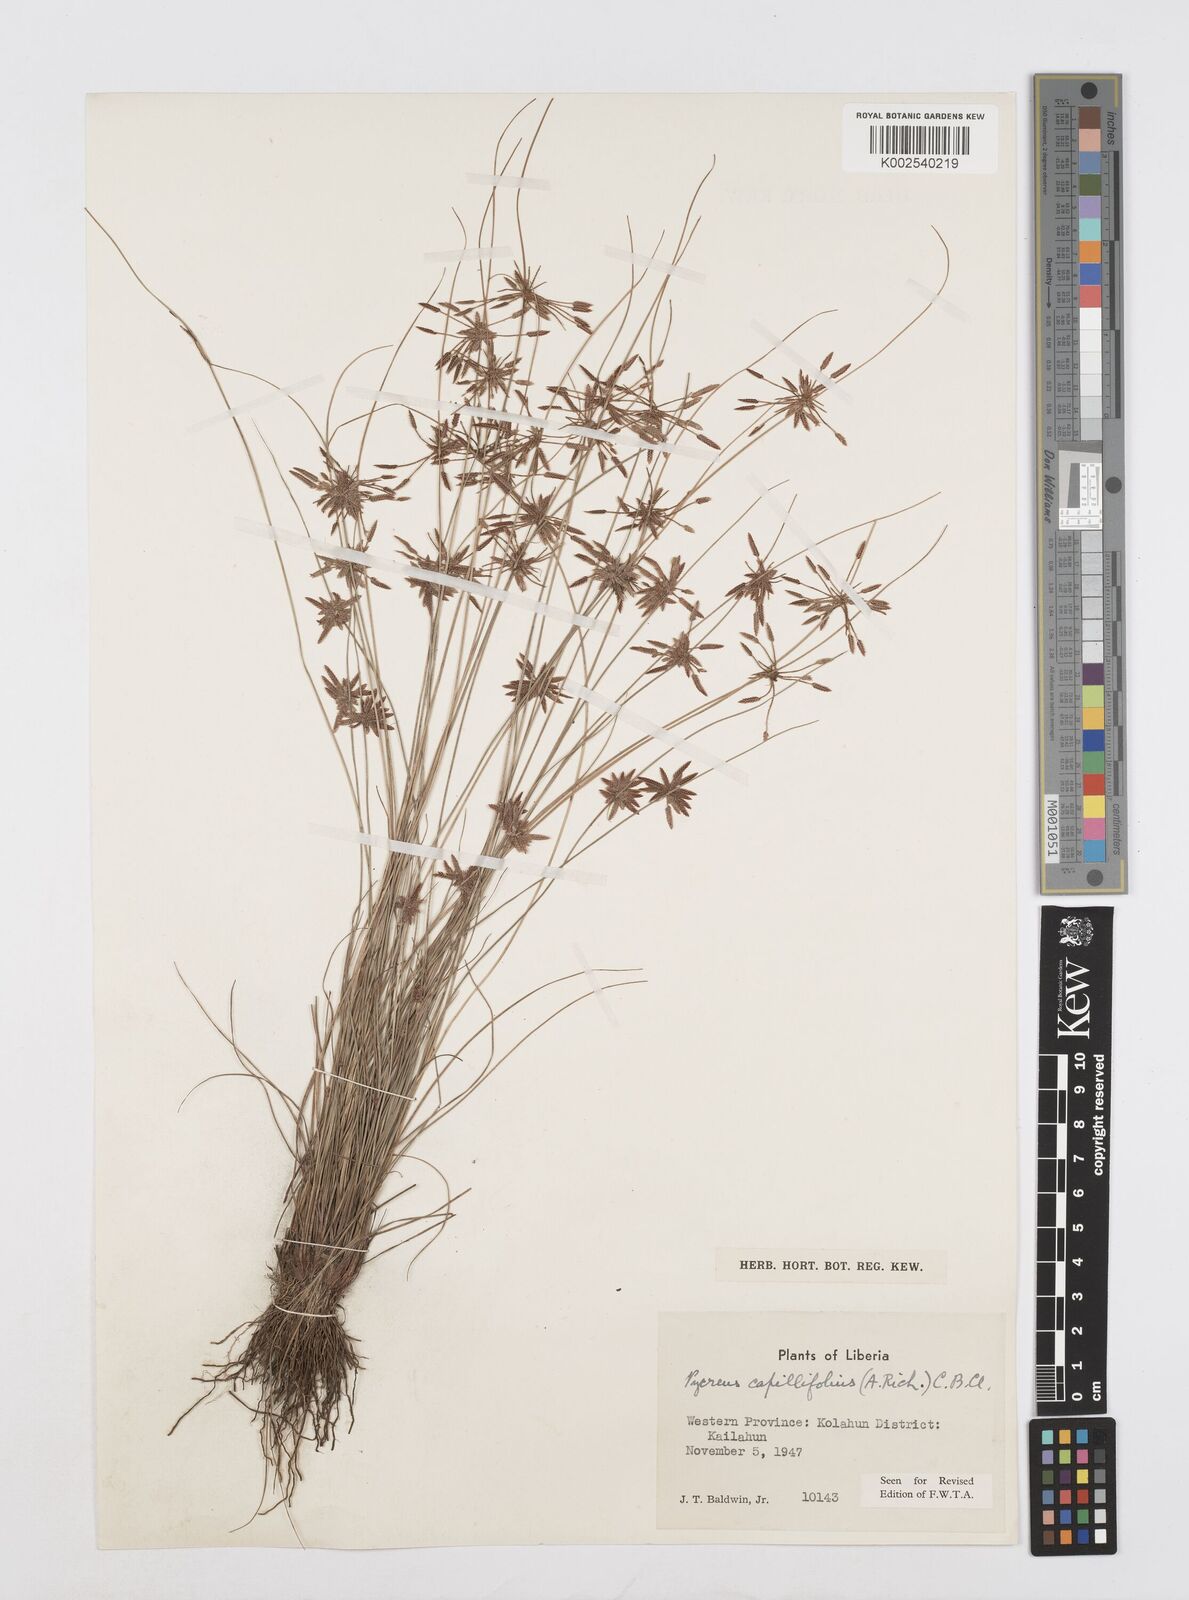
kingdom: Plantae
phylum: Tracheophyta
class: Liliopsida
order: Poales
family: Cyperaceae
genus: Cyperus
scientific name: Cyperus capillifolius
